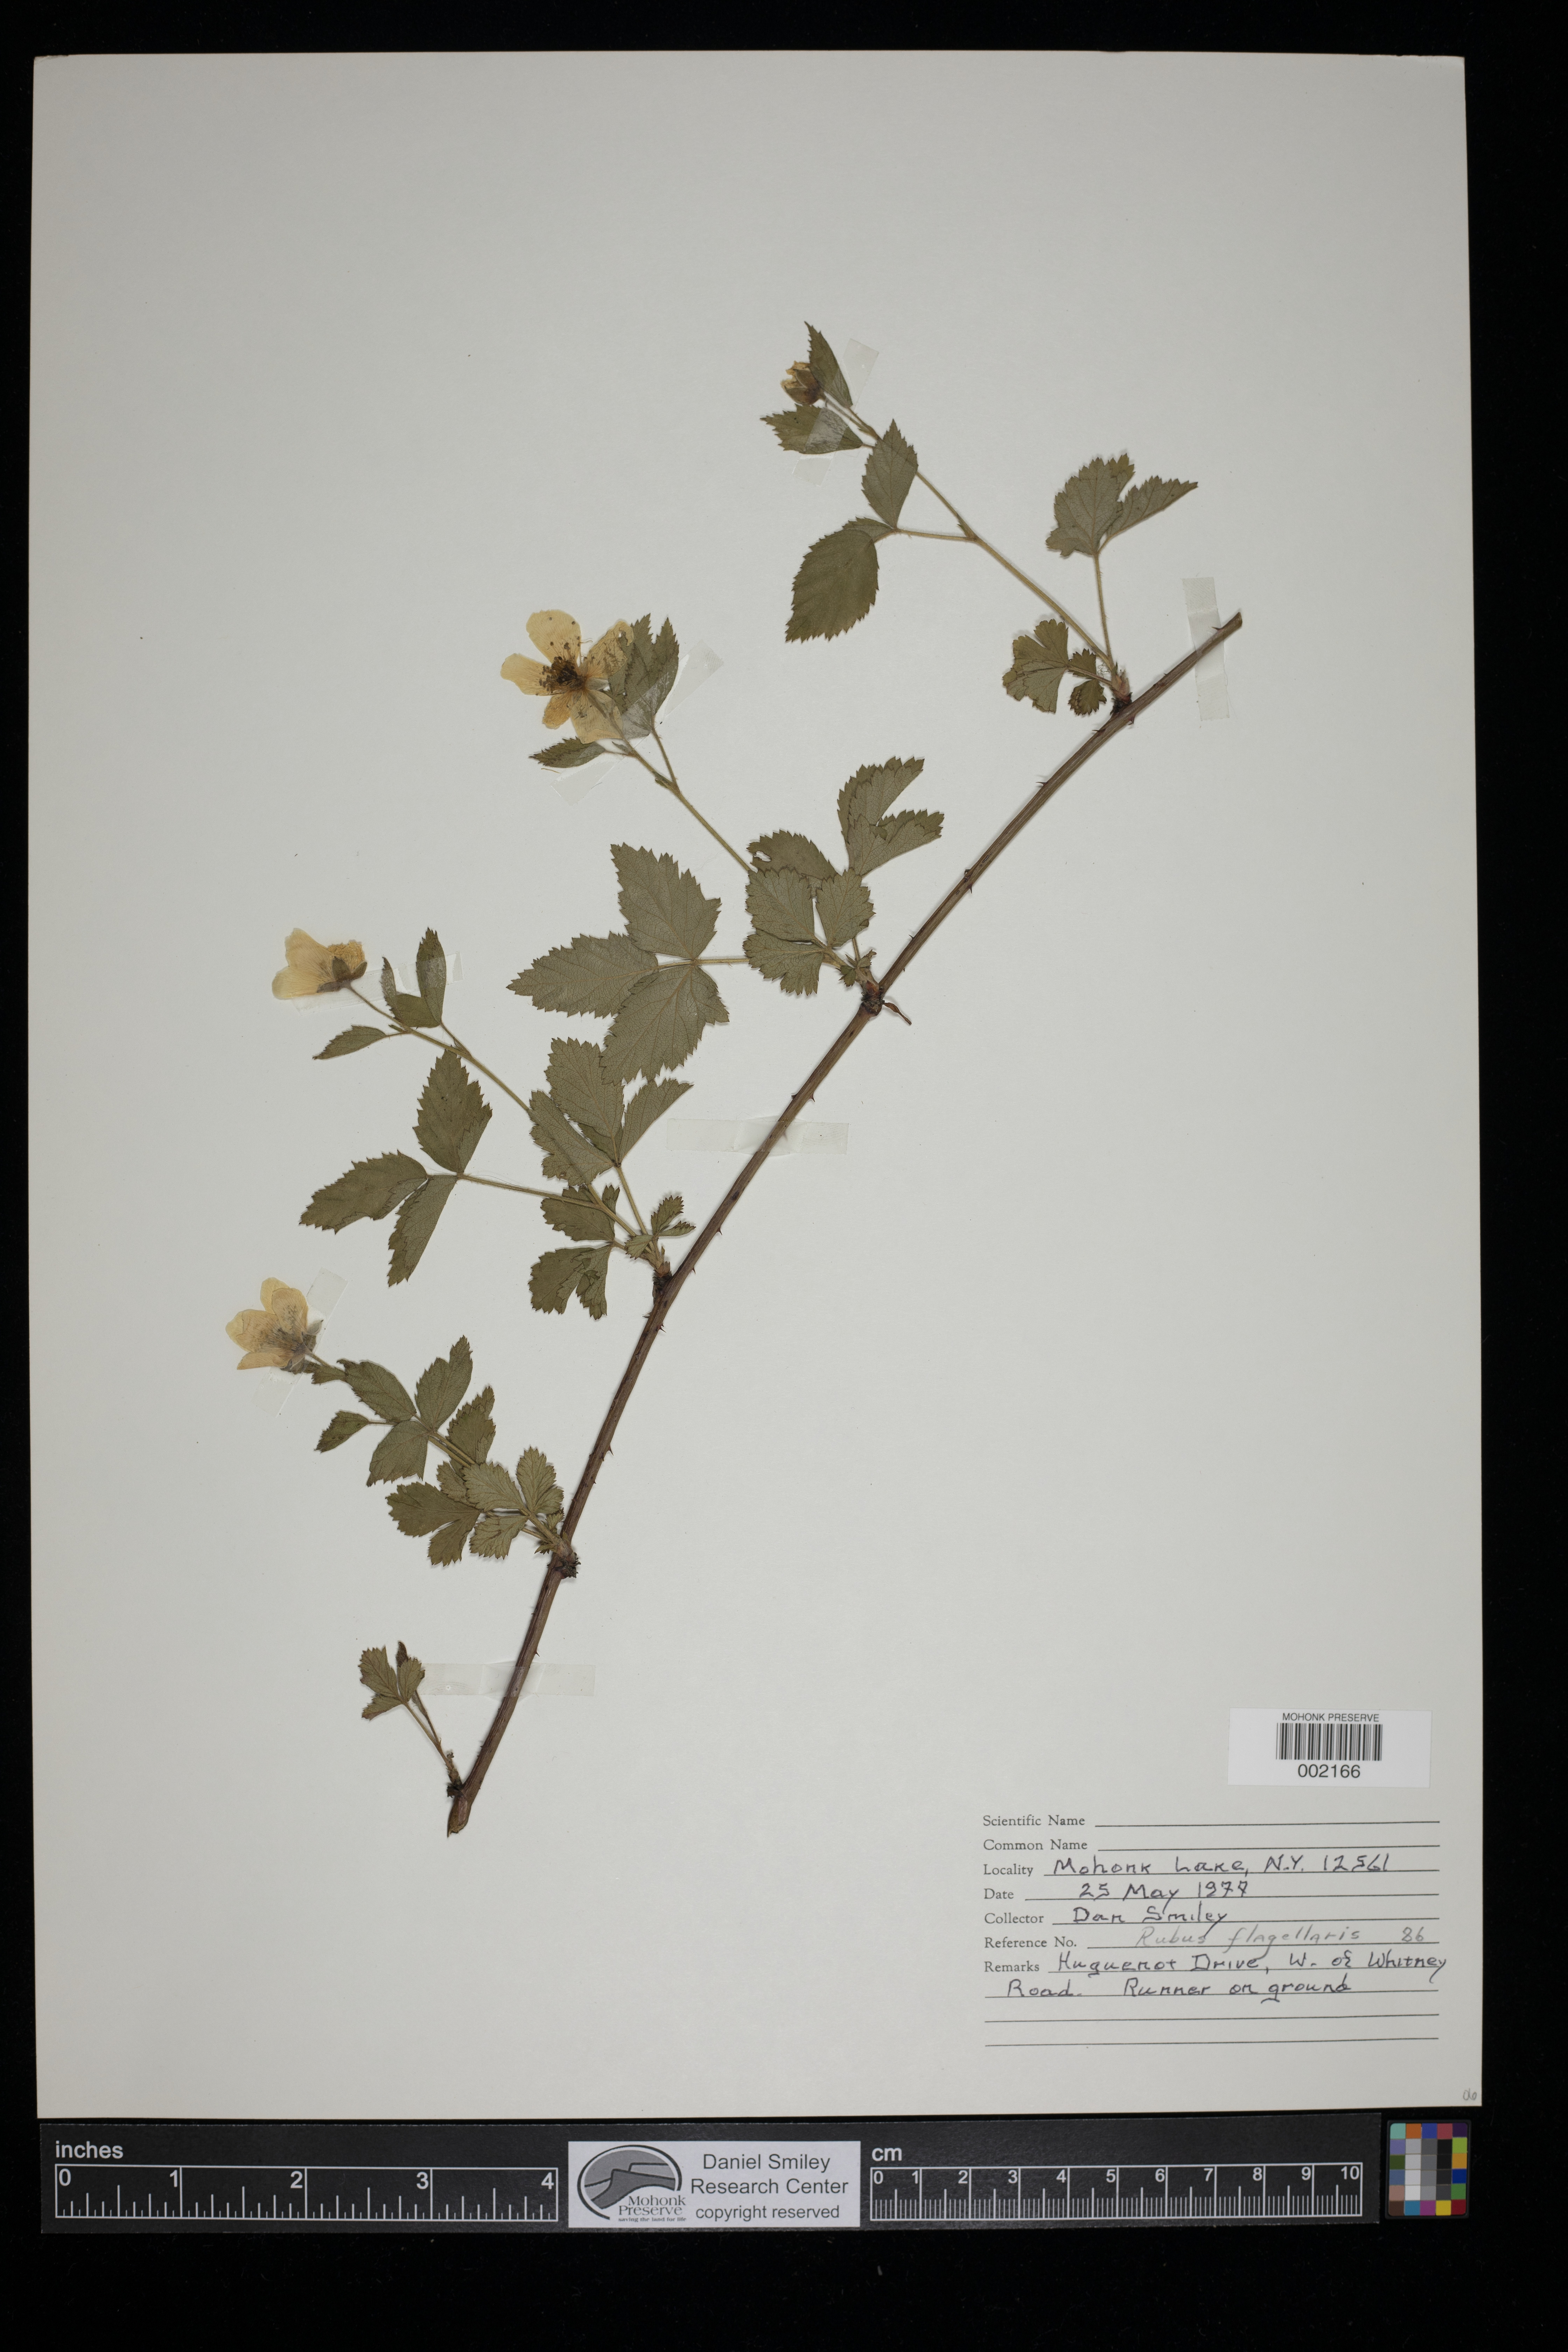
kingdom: Plantae
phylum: Tracheophyta
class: Magnoliopsida
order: Rosales
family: Rosaceae
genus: Rubus
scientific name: Rubus flagellaris
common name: American dewberry
